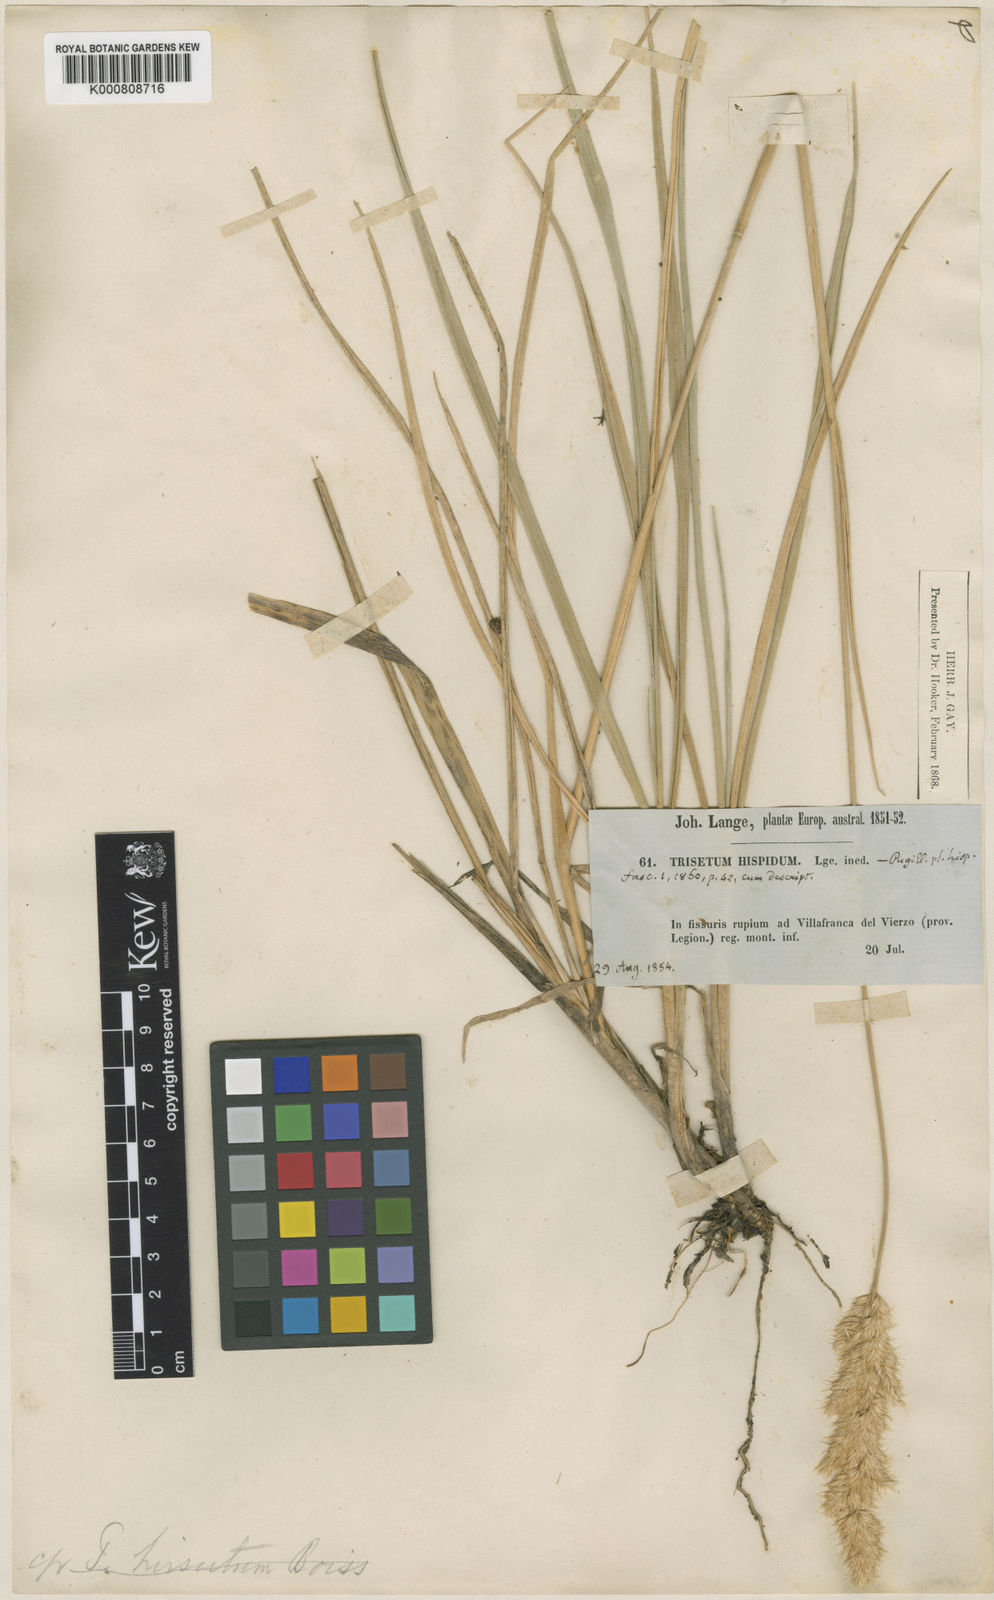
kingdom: Plantae
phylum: Tracheophyta
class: Liliopsida
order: Poales
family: Poaceae
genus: Koeleria
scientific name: Koeleria hispanica
